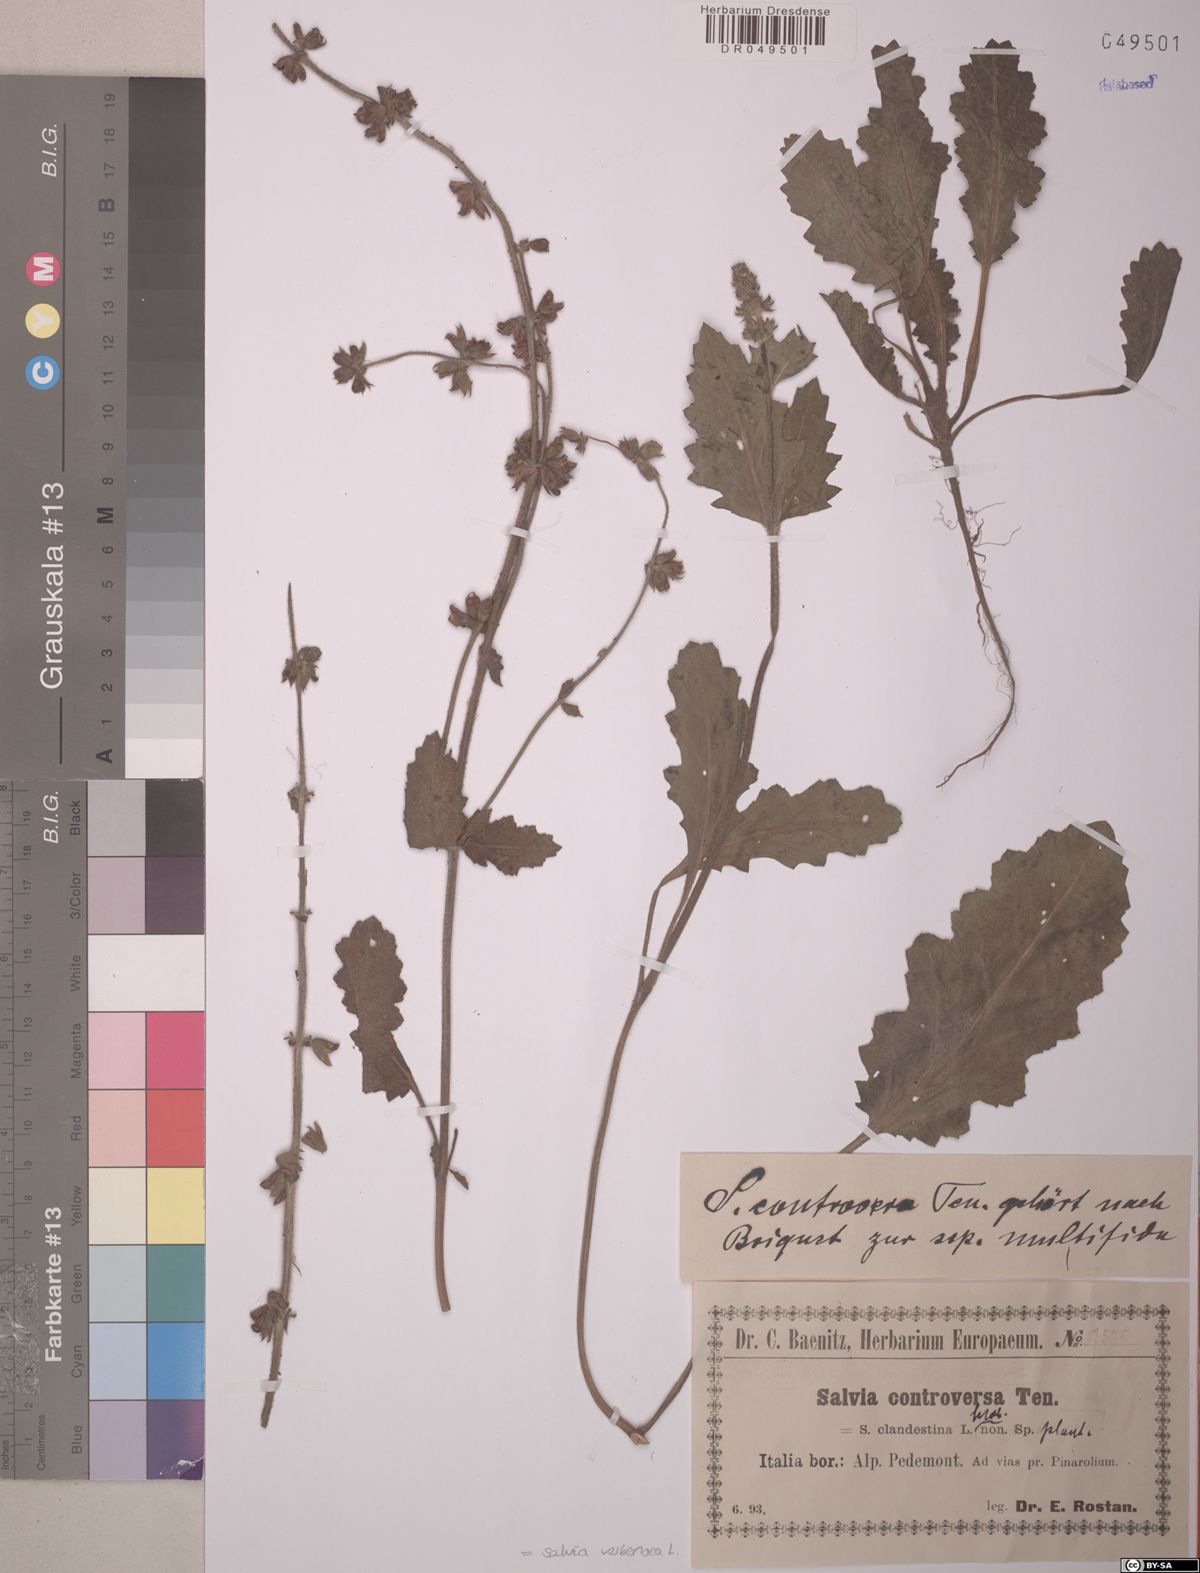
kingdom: Plantae
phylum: Tracheophyta
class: Magnoliopsida
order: Lamiales
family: Lamiaceae
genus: Salvia
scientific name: Salvia verbenaca
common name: Wild clary
